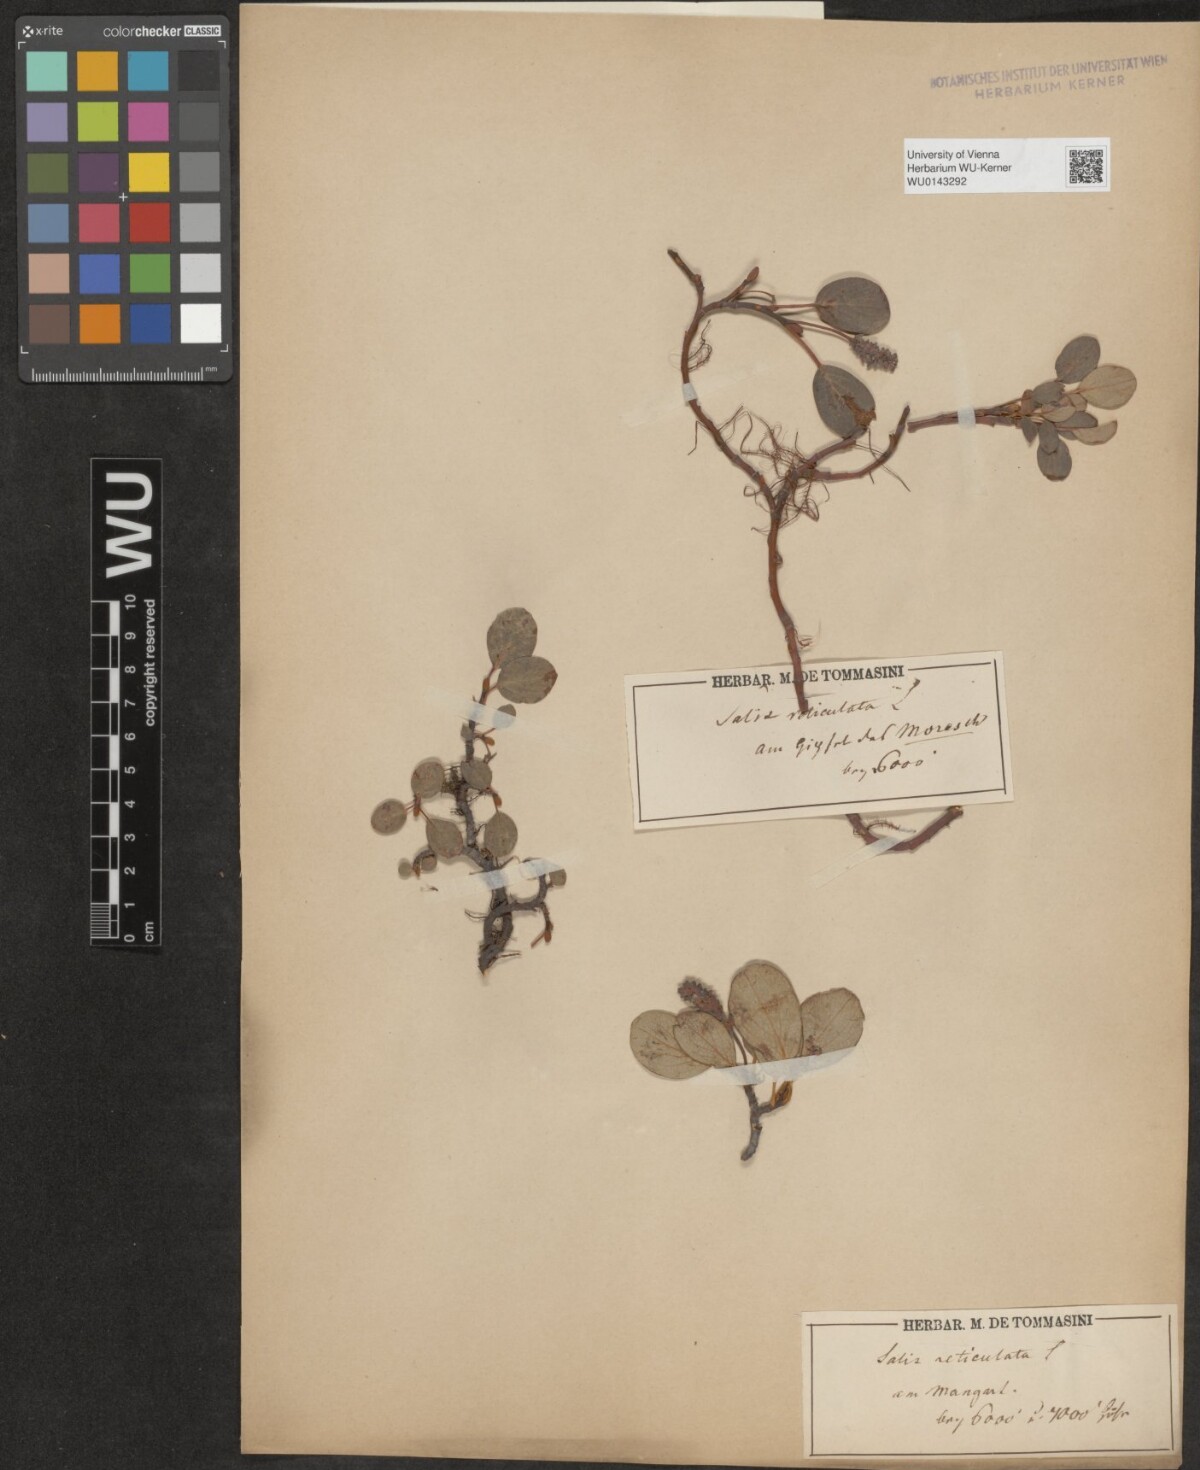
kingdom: Plantae
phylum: Tracheophyta
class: Magnoliopsida
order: Malpighiales
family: Salicaceae
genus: Salix
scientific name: Salix reticulata
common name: Net-leaved willow
